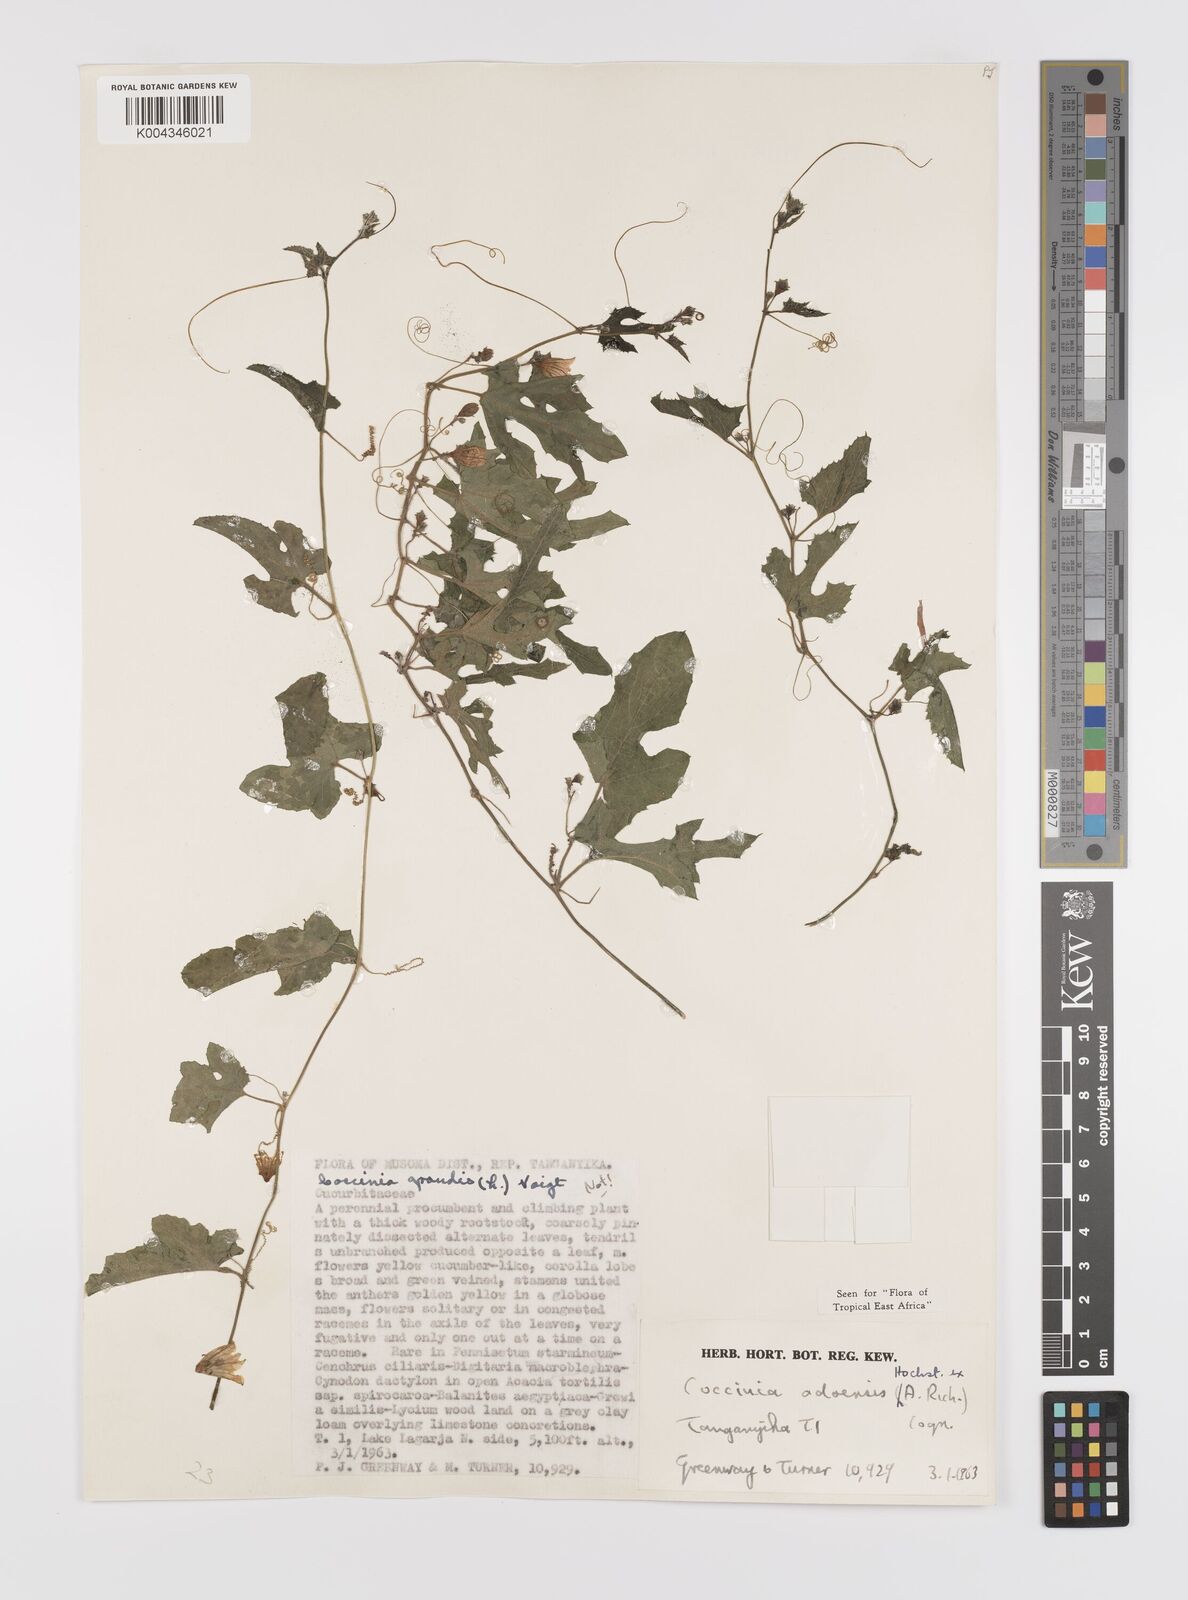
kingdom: Plantae
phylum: Tracheophyta
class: Magnoliopsida
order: Cucurbitales
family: Cucurbitaceae
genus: Coccinia
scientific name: Coccinia adoensis
